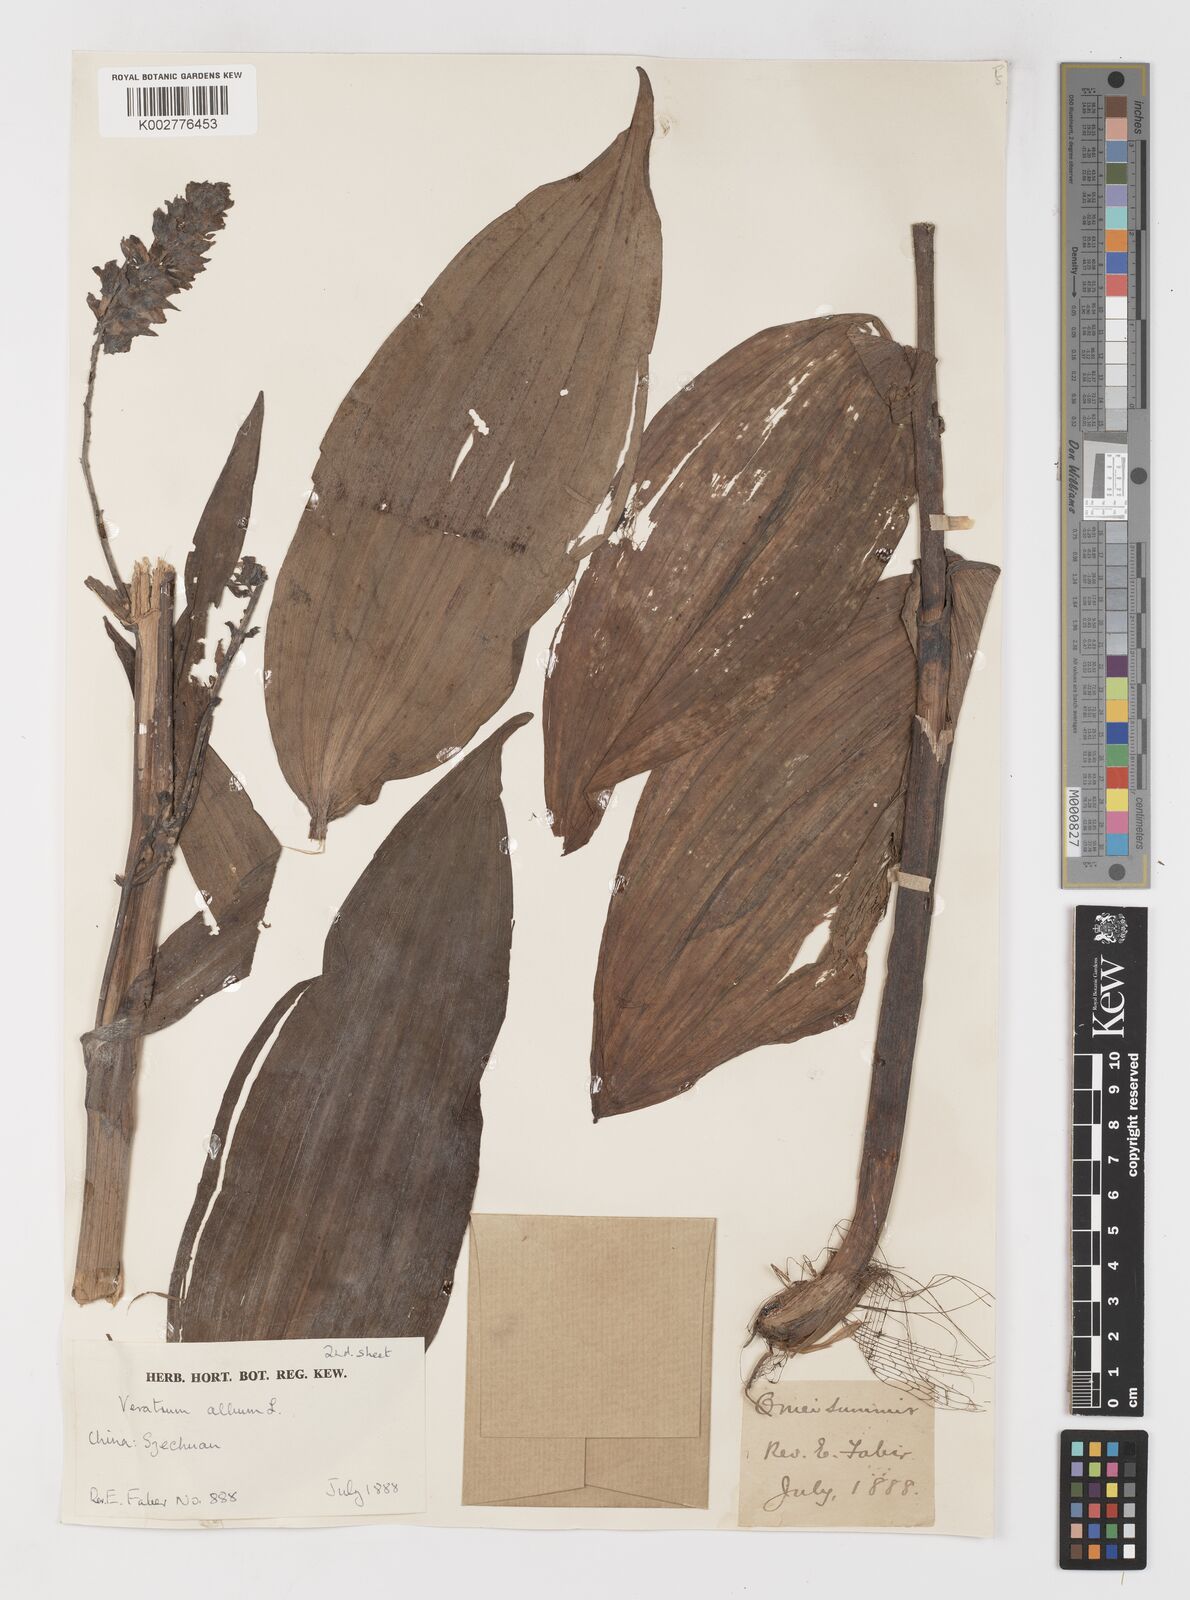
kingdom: Plantae
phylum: Tracheophyta
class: Liliopsida
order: Liliales
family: Melanthiaceae
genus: Veratrum
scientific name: Veratrum album
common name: White veratrum
